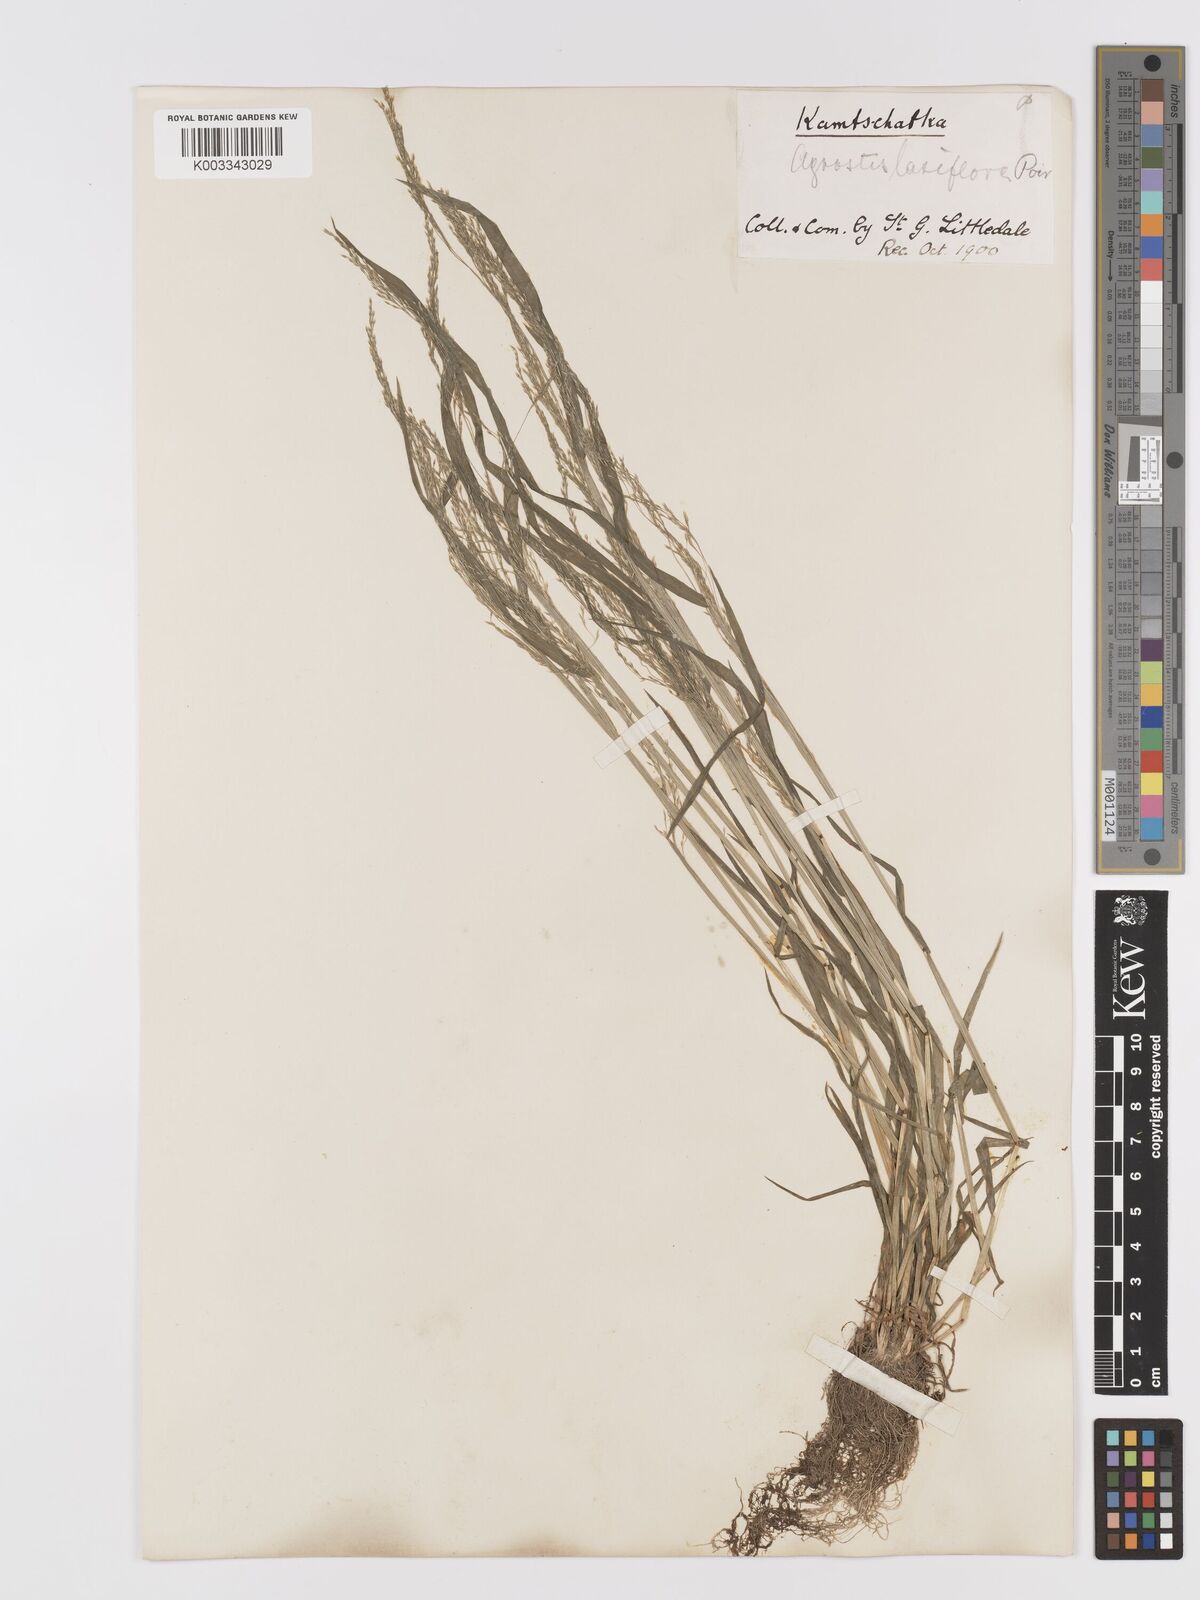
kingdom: Plantae
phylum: Tracheophyta
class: Liliopsida
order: Poales
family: Poaceae
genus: Agrostis
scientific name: Agrostis clavata
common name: Clavate bent
